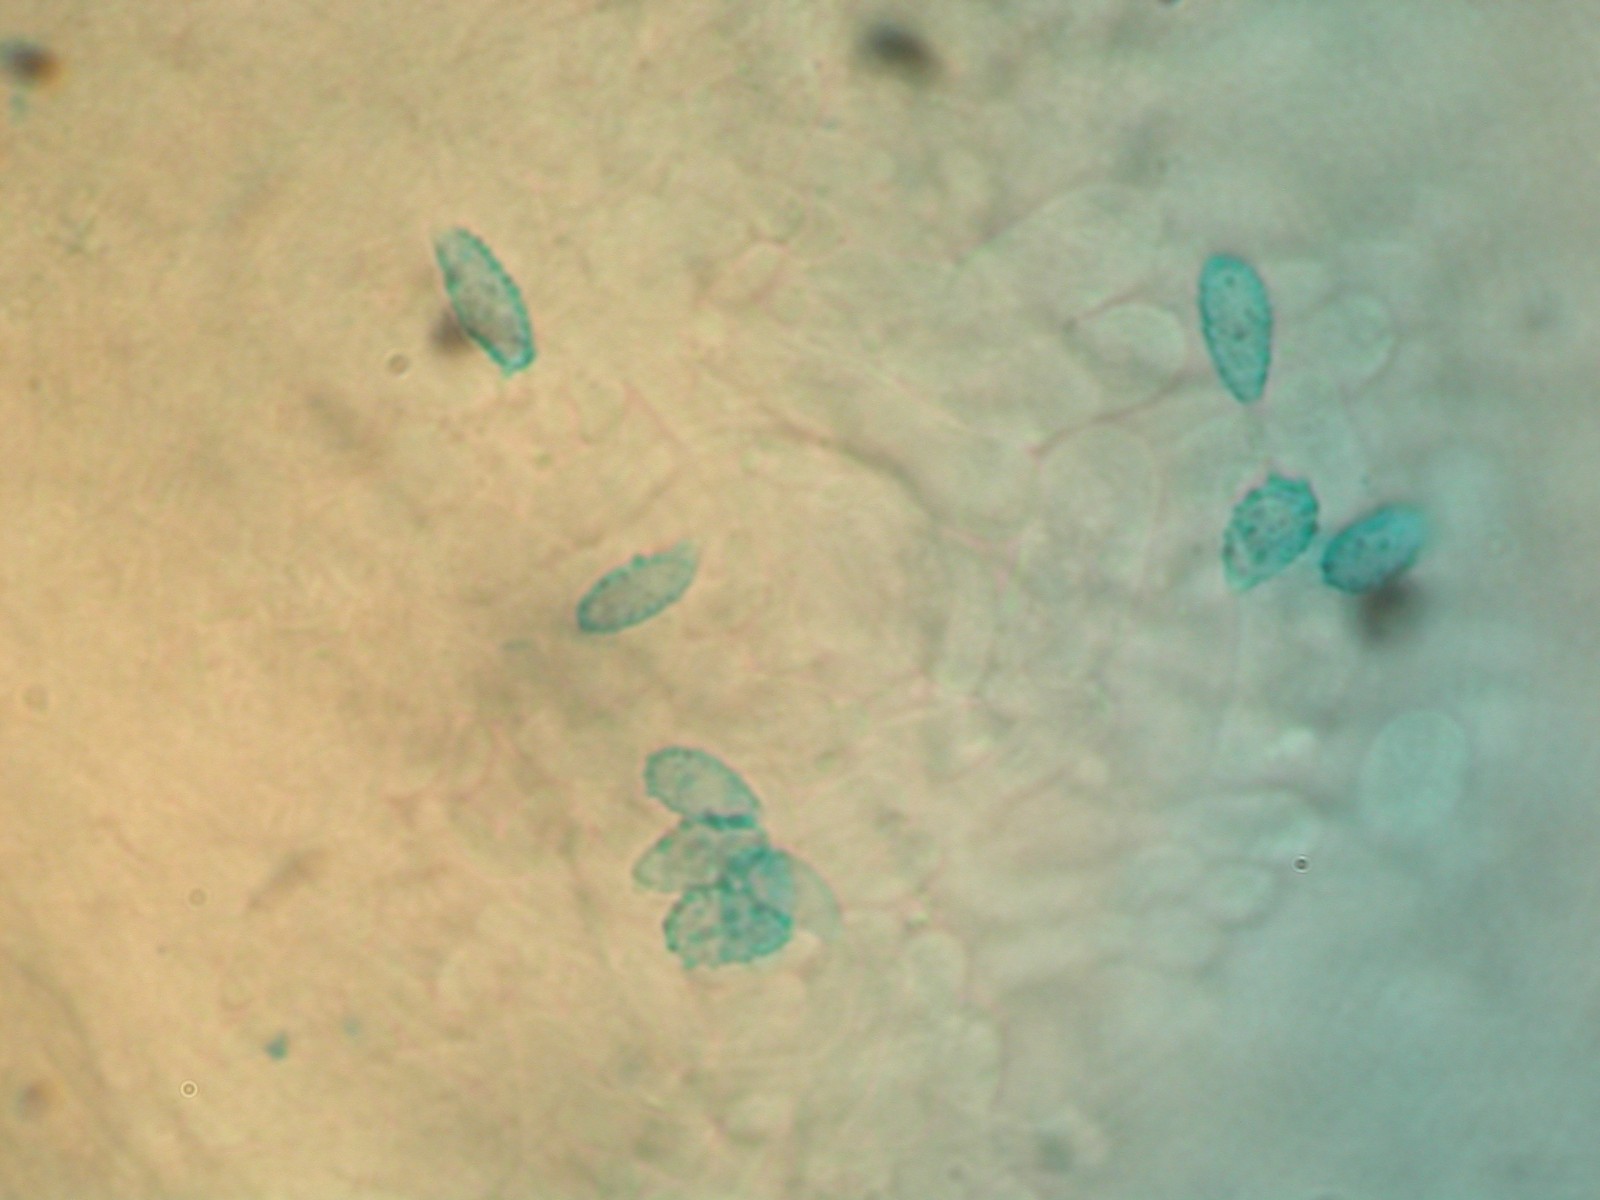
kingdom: Fungi
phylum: Basidiomycota
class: Agaricomycetes
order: Gomphales
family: Gomphaceae
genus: Phaeoclavulina
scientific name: Phaeoclavulina abietina
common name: gulgrøn koralsvamp
